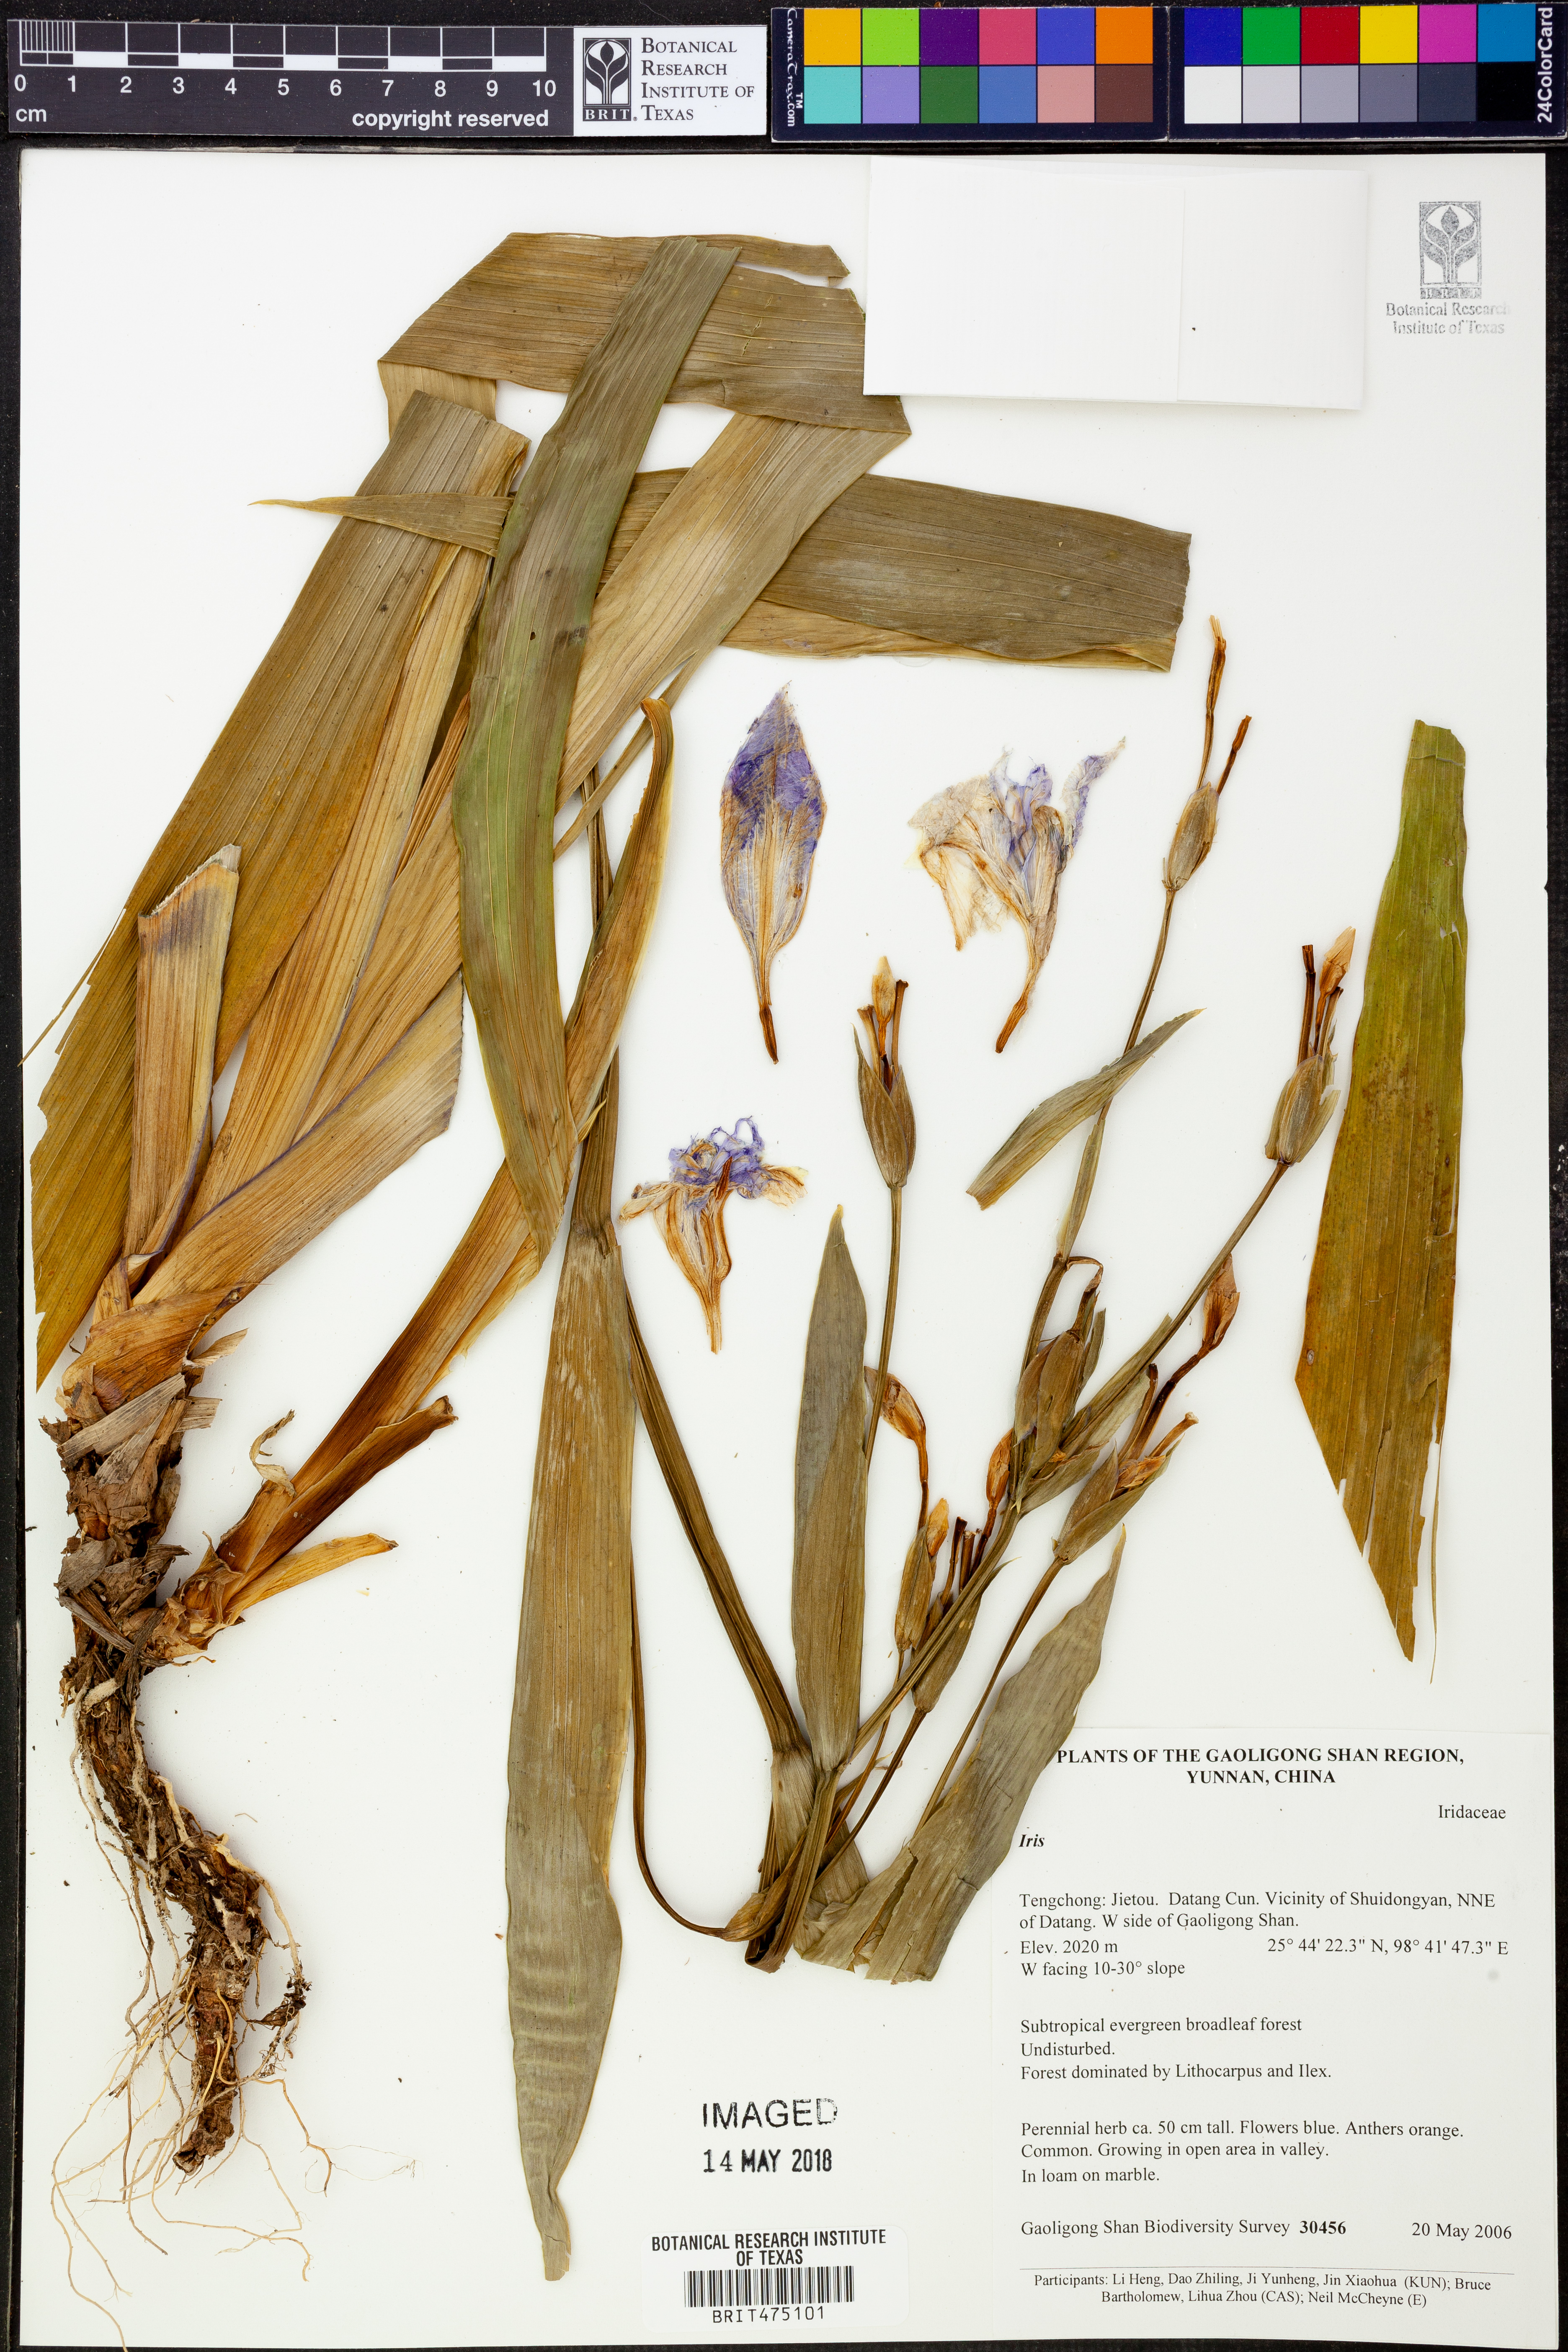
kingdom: Plantae
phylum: Tracheophyta
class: Liliopsida
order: Asparagales
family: Iridaceae
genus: Iris
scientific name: Iris
